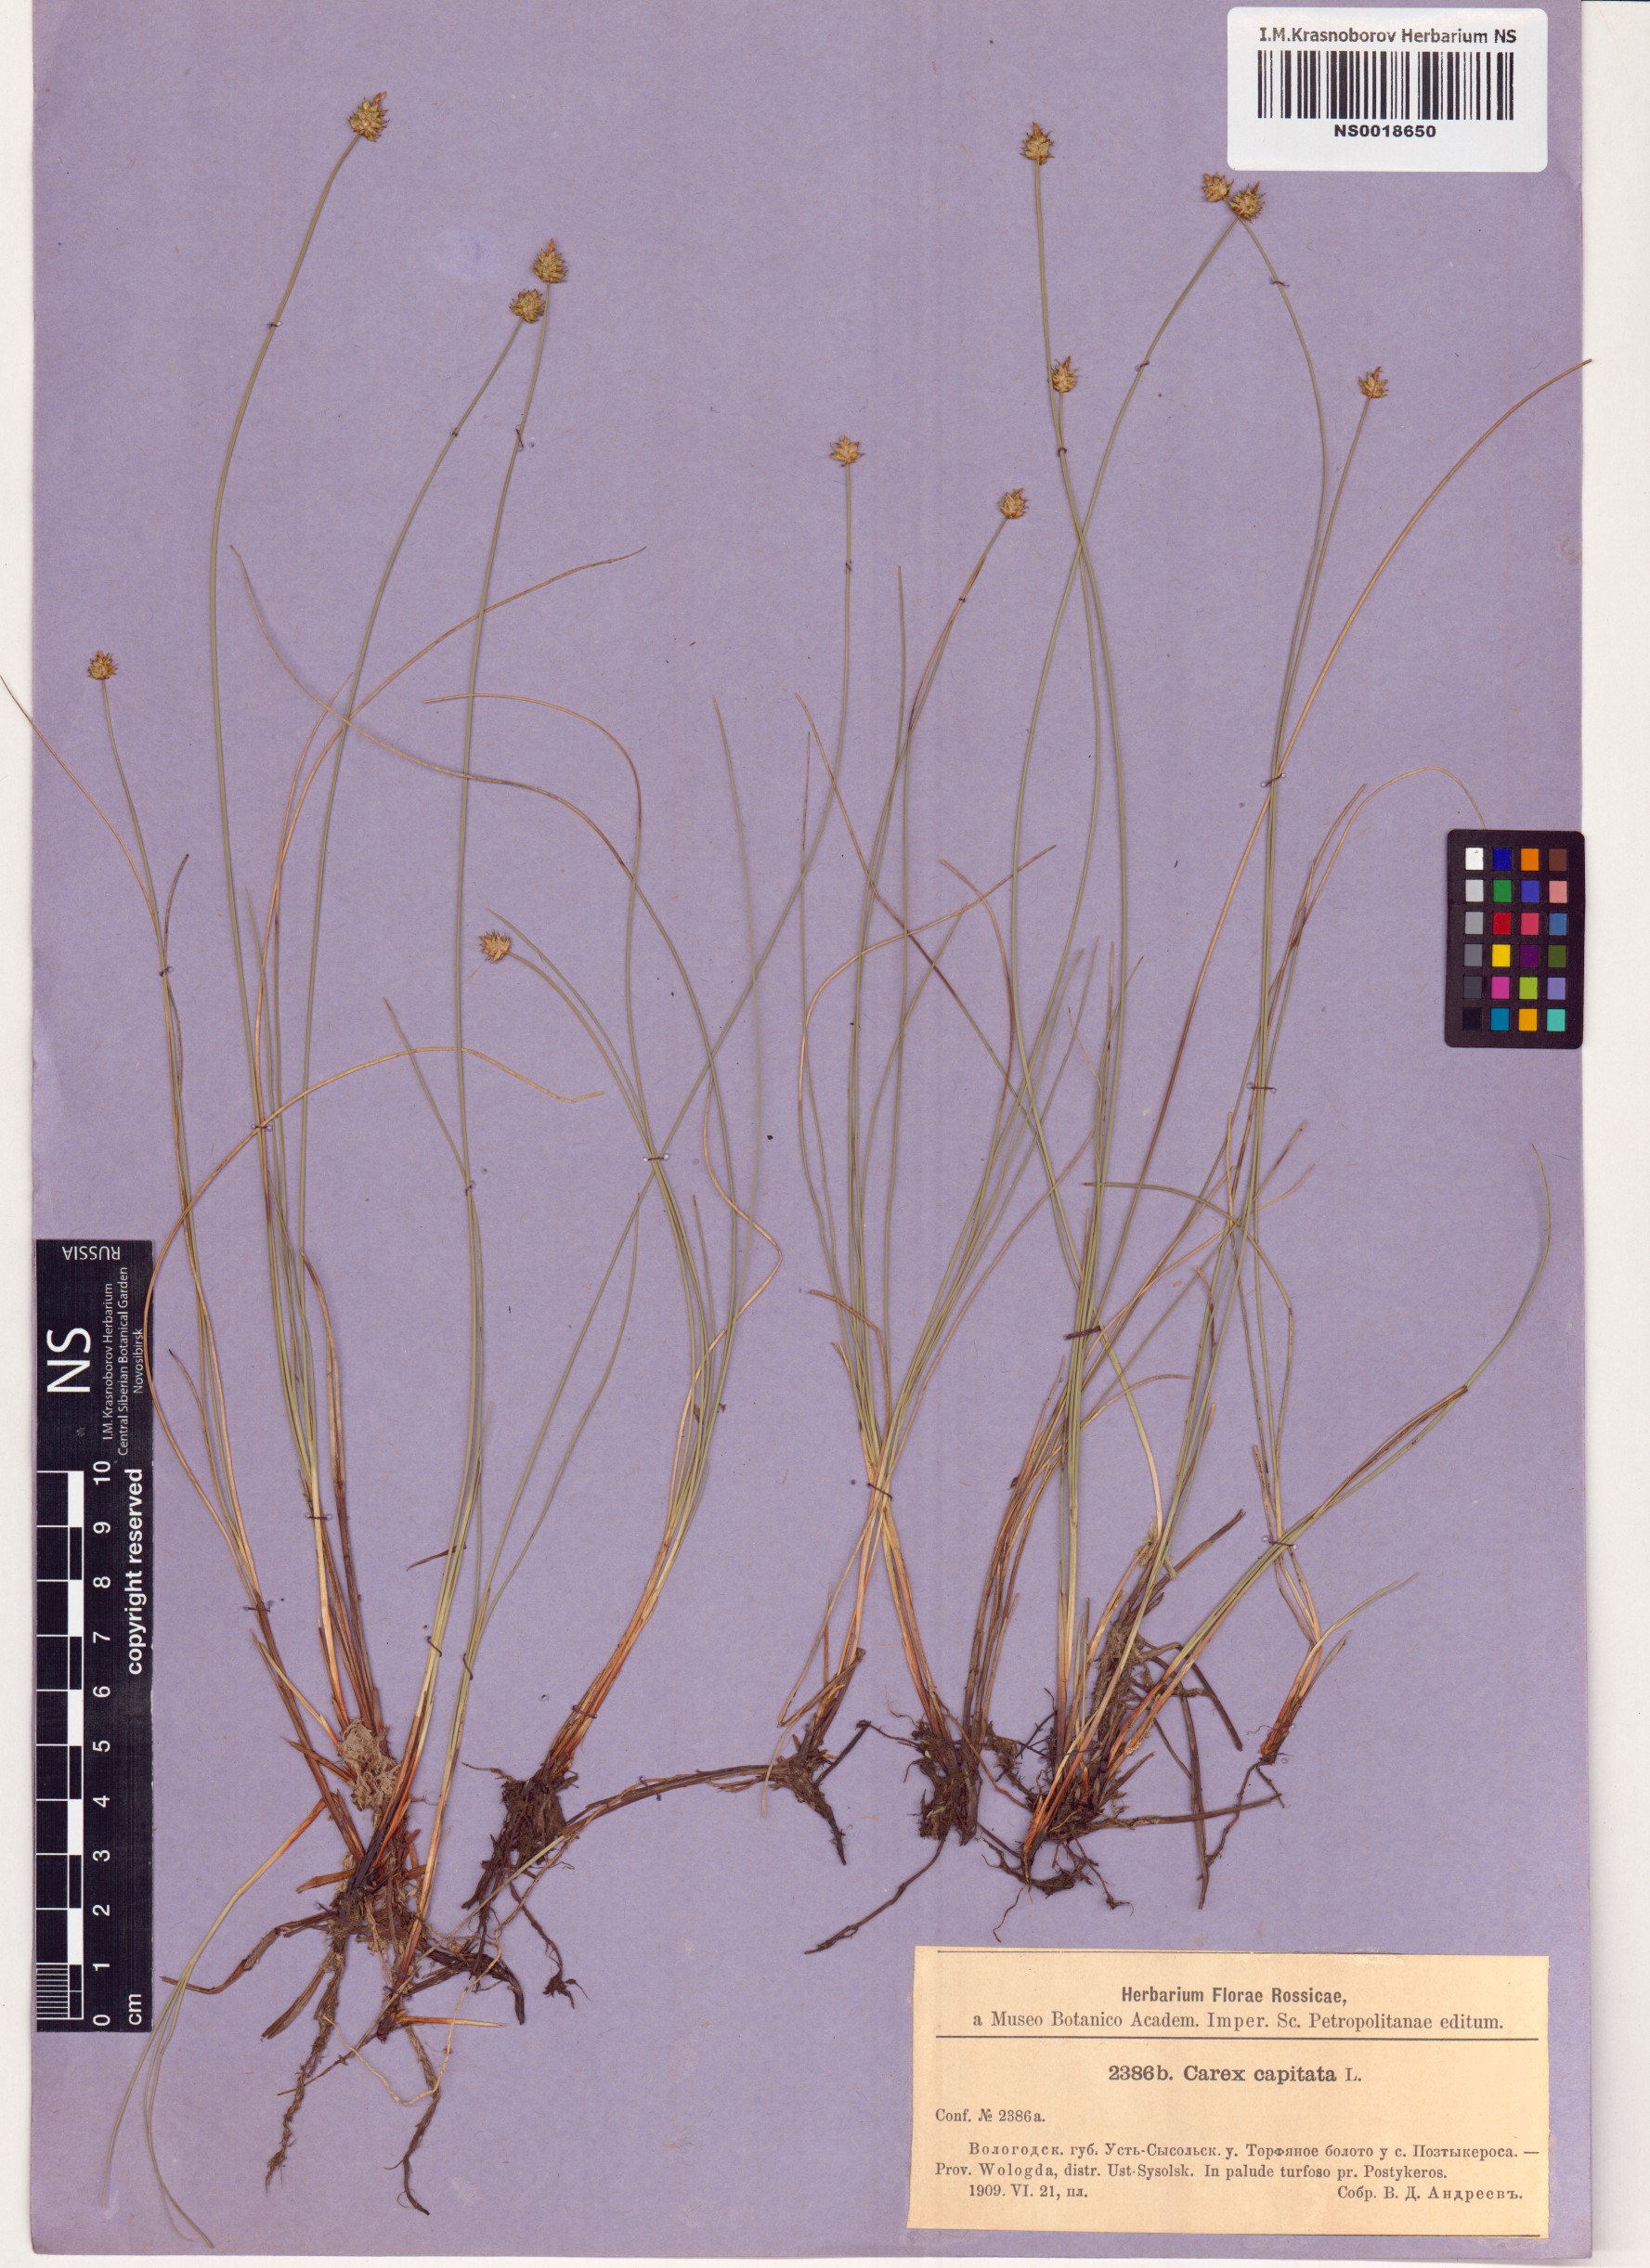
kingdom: Plantae
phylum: Tracheophyta
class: Liliopsida
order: Poales
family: Cyperaceae
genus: Carex
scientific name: Carex capitata
